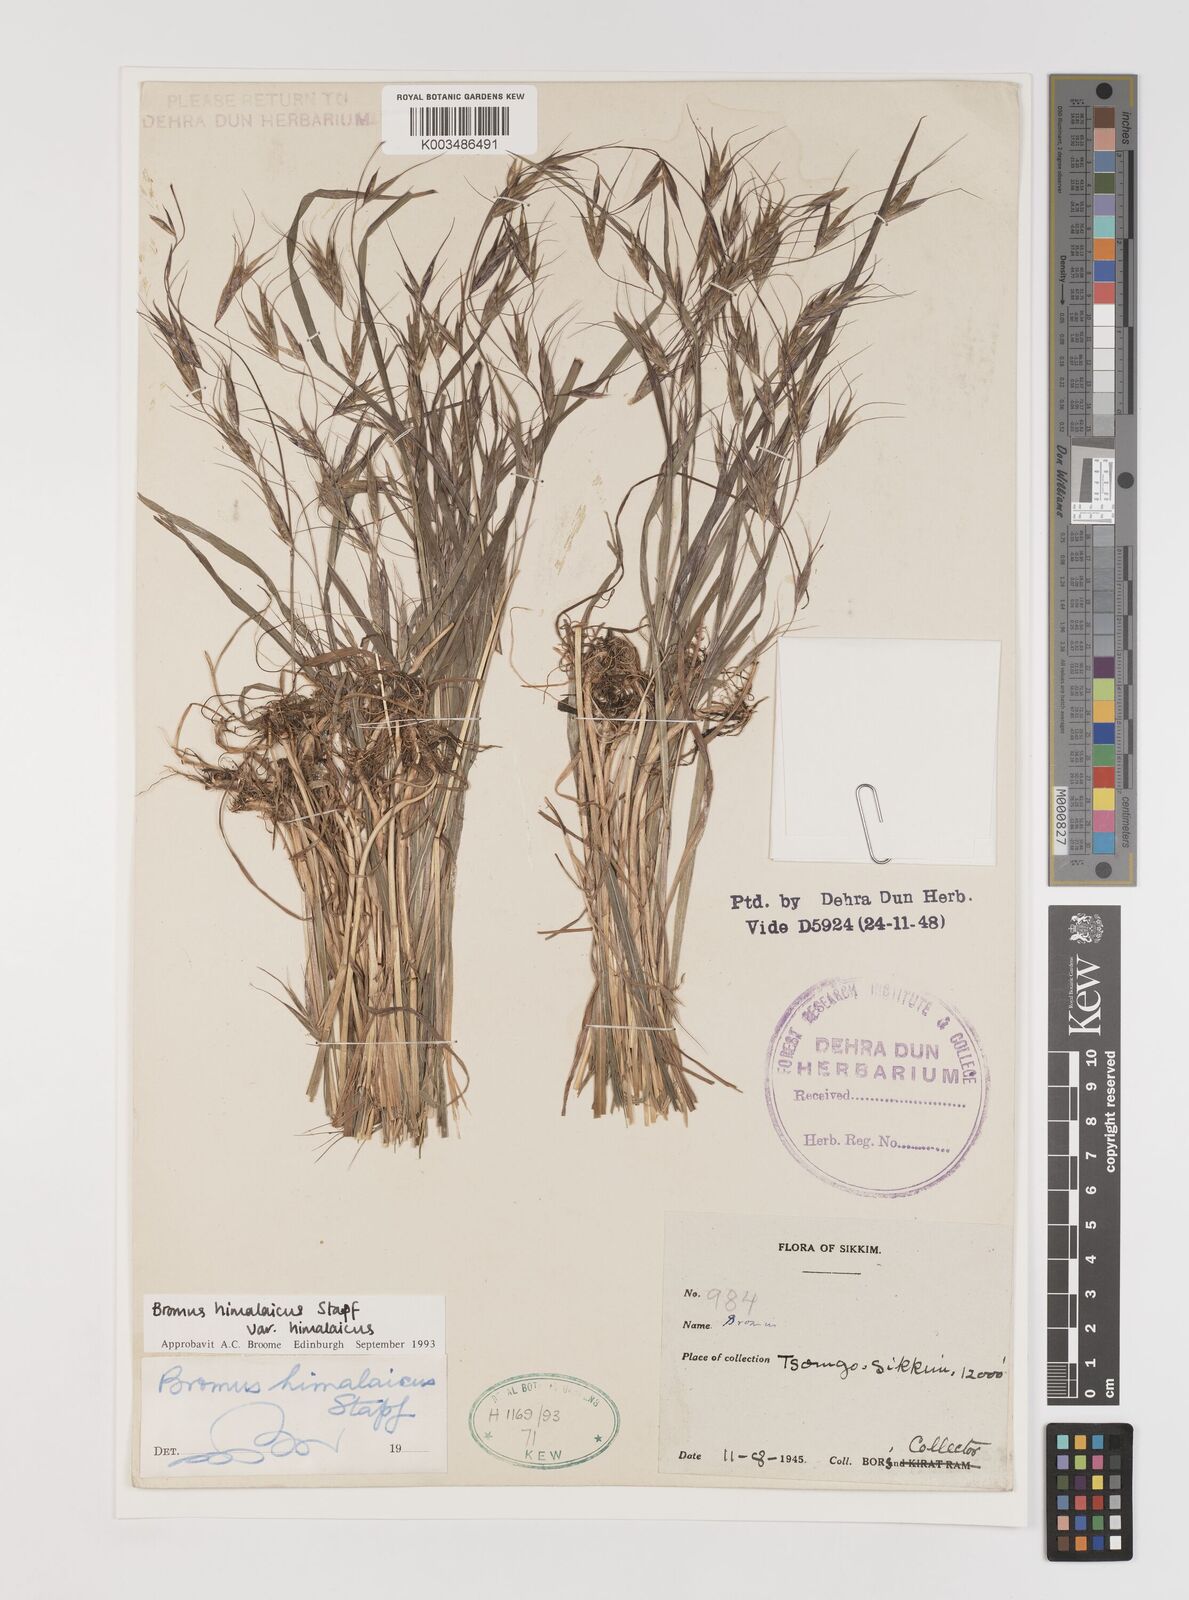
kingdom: Plantae
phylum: Tracheophyta
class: Liliopsida
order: Poales
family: Poaceae
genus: Bromus
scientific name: Bromus himalaicus
